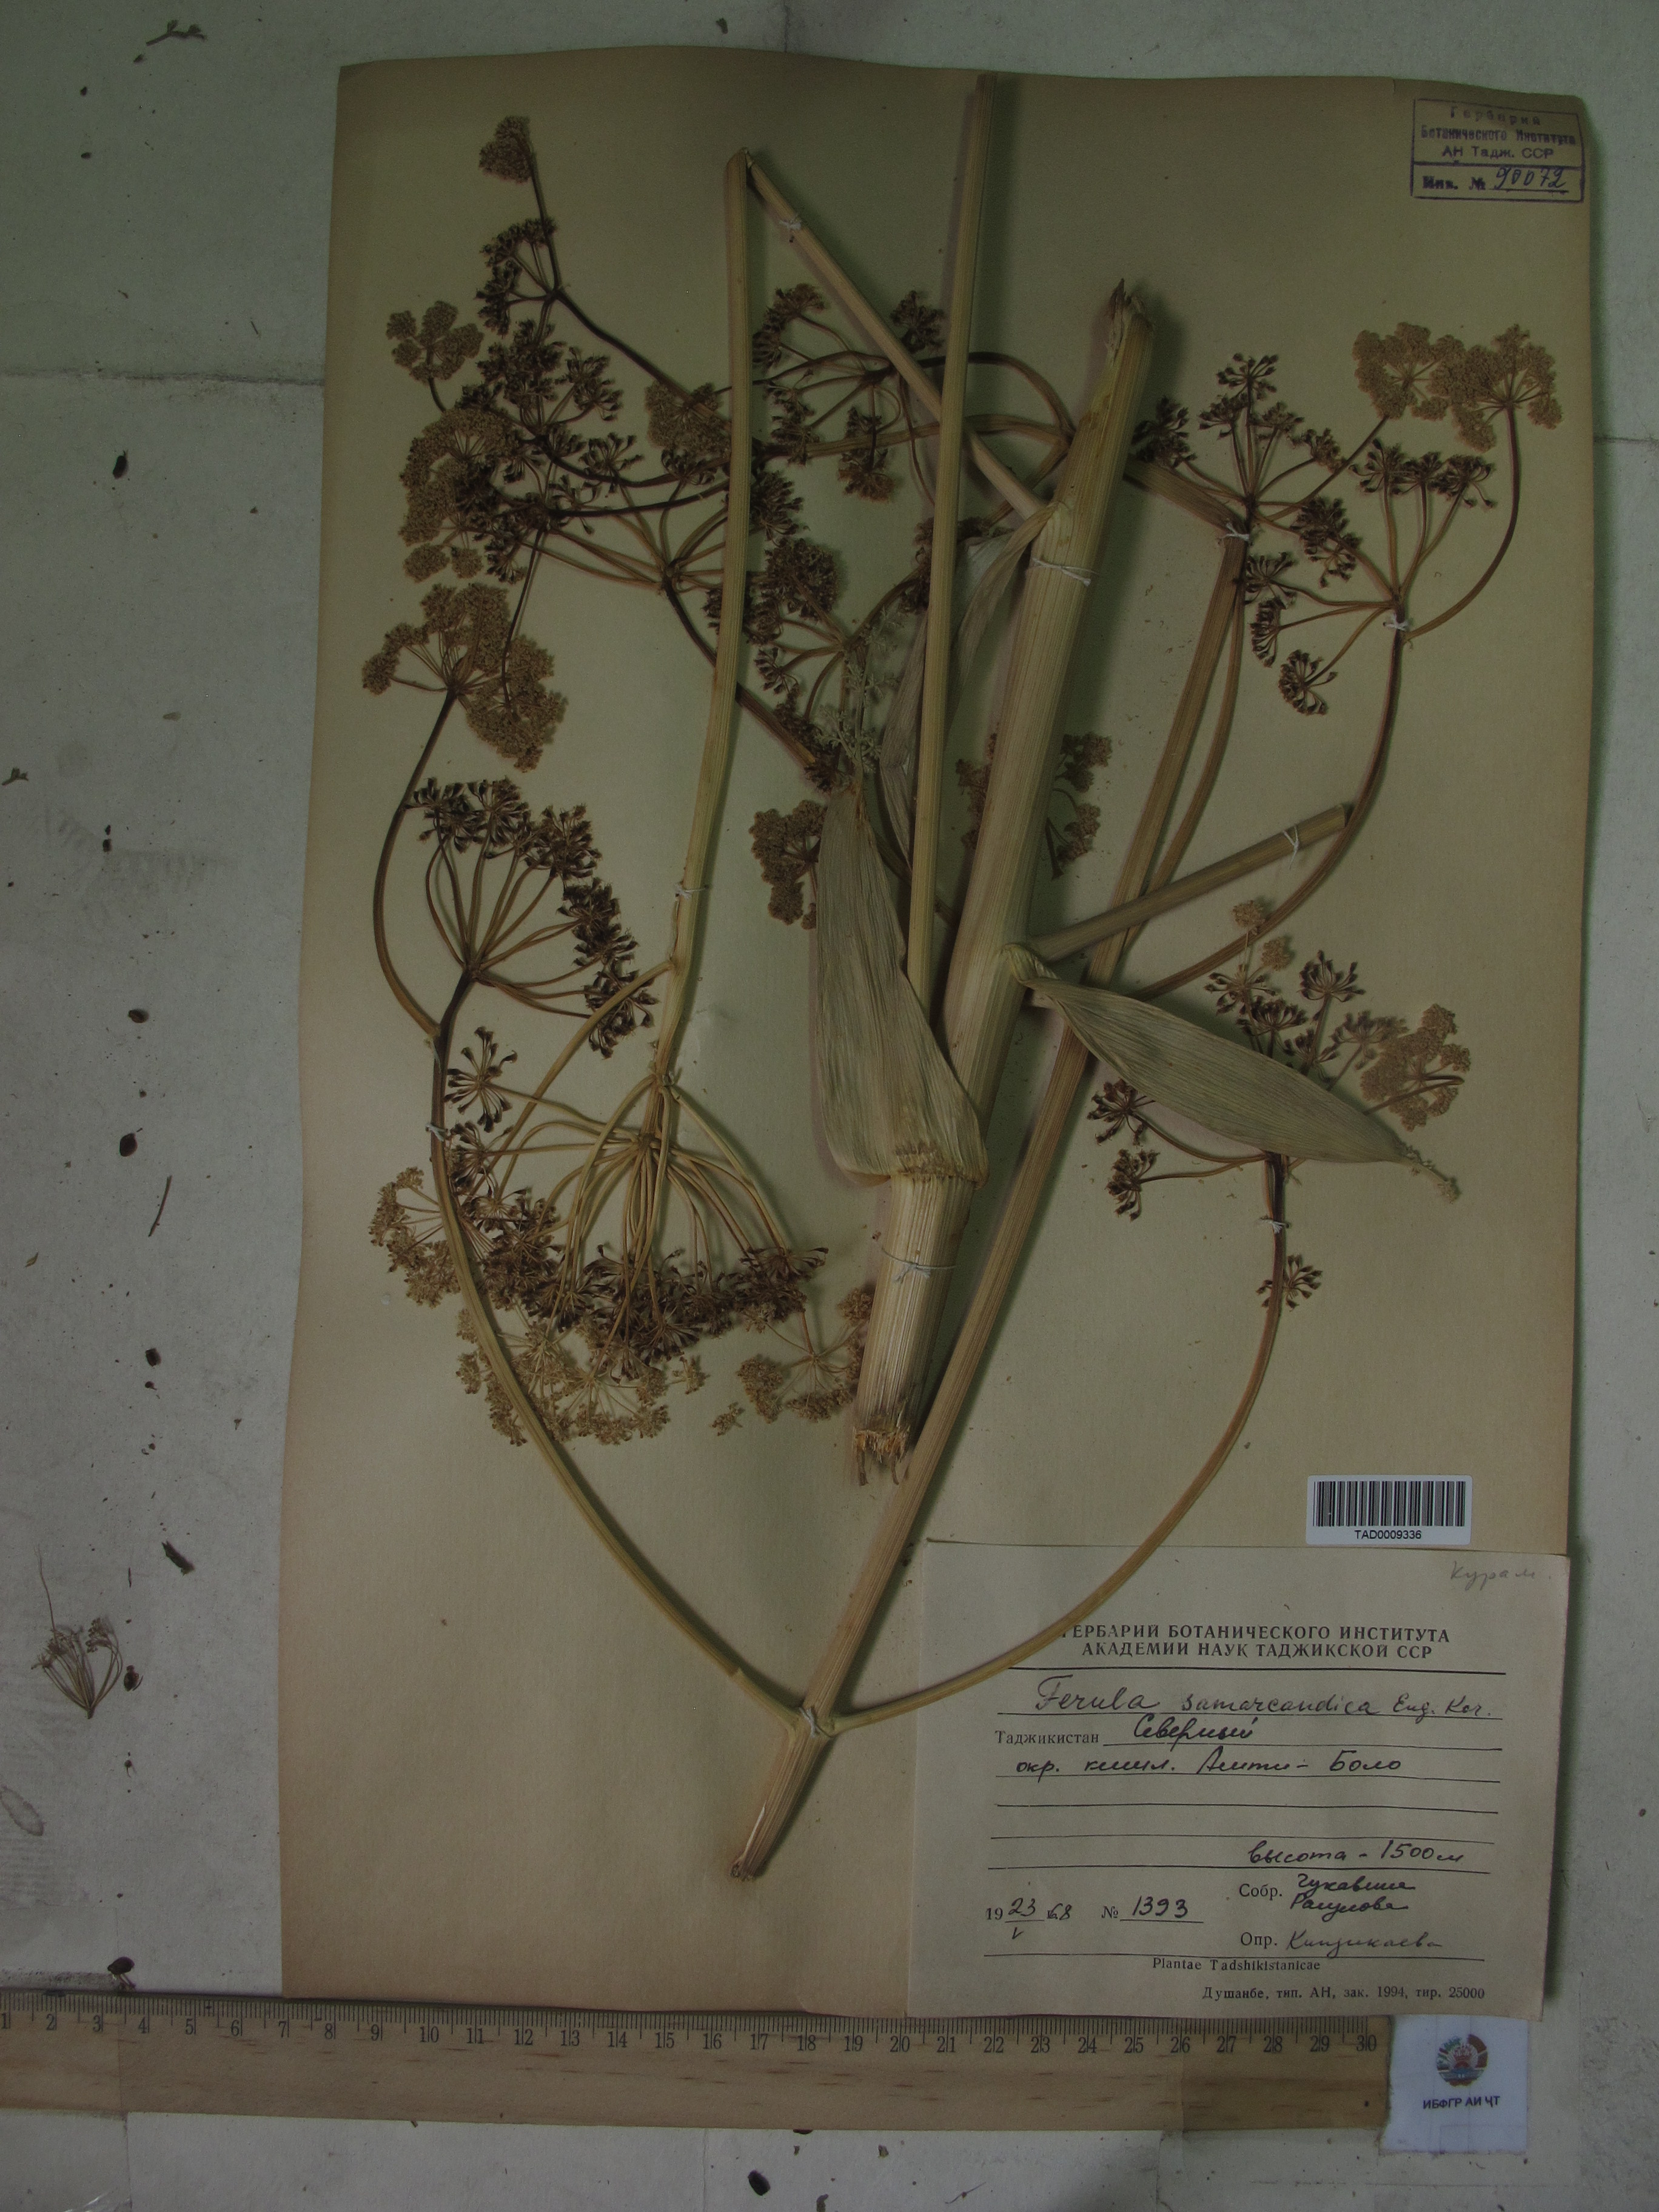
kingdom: Plantae
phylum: Tracheophyta
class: Magnoliopsida
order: Apiales
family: Apiaceae
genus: Ferula
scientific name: Ferula samarkandica
